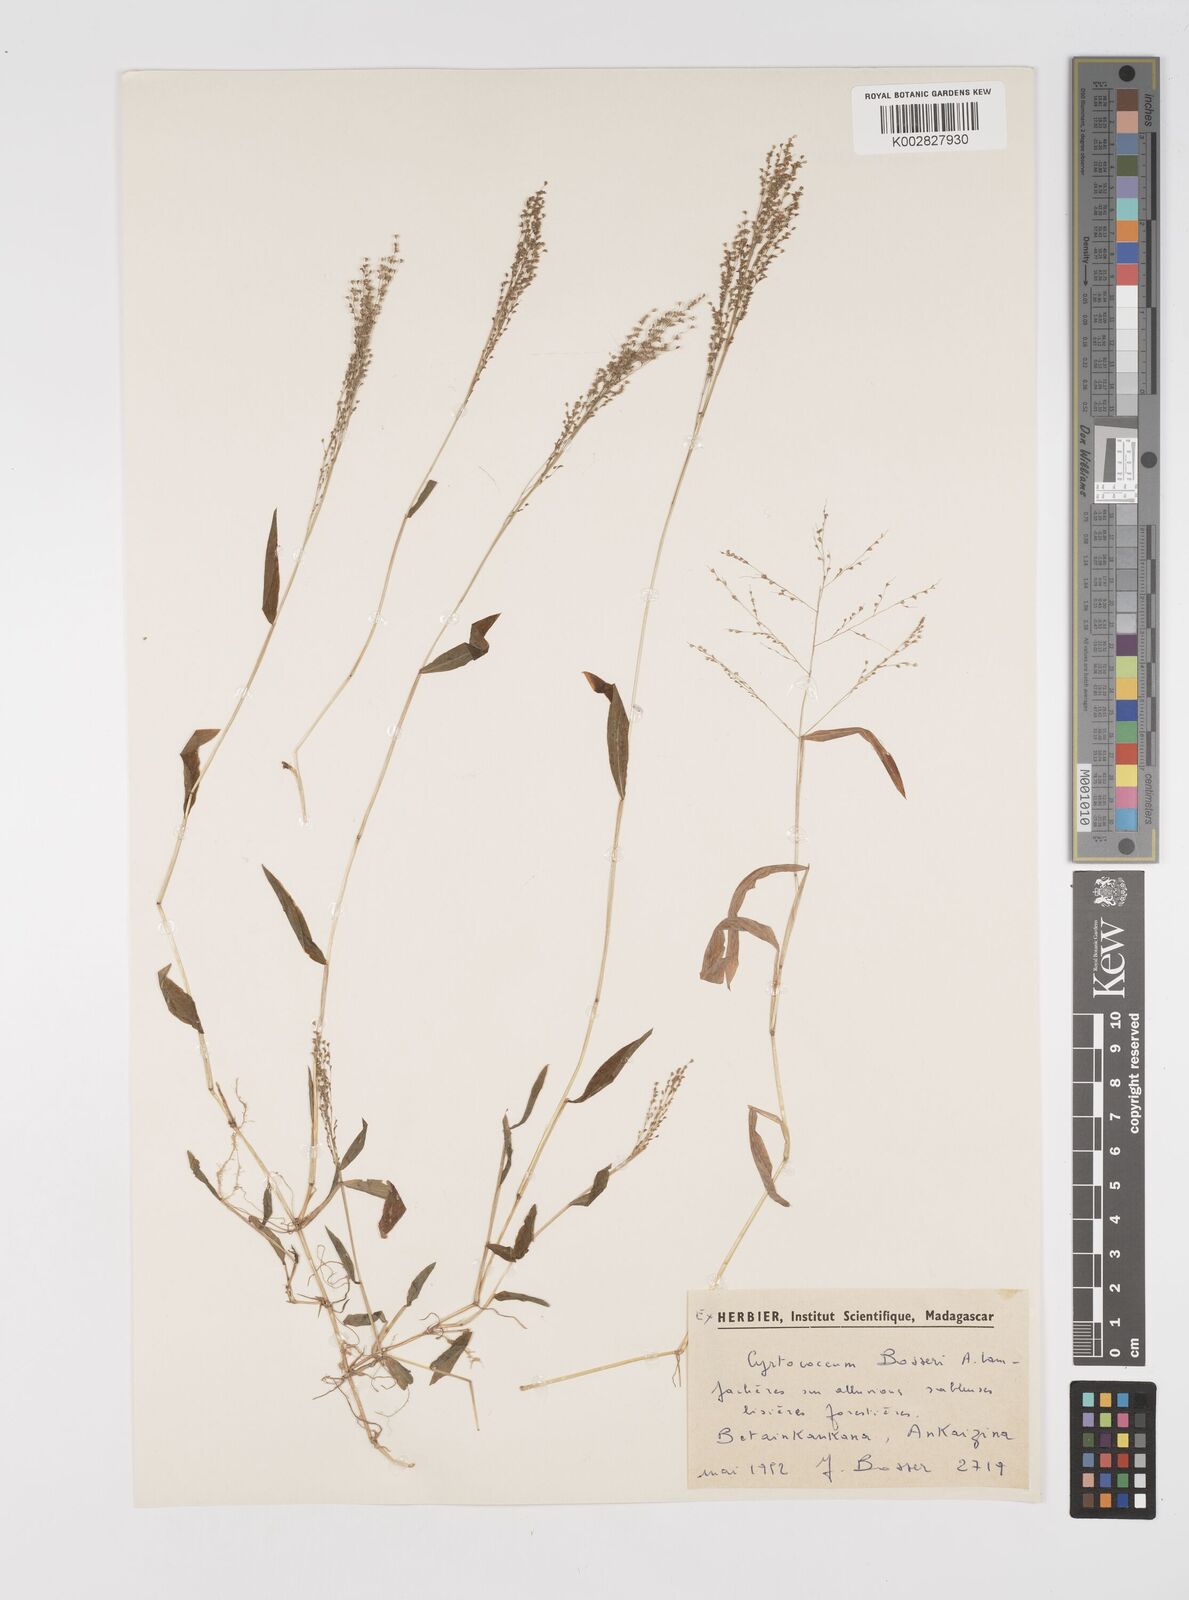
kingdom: Plantae
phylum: Tracheophyta
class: Liliopsida
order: Poales
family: Poaceae
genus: Cyrtococcum
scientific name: Cyrtococcum bosseri
